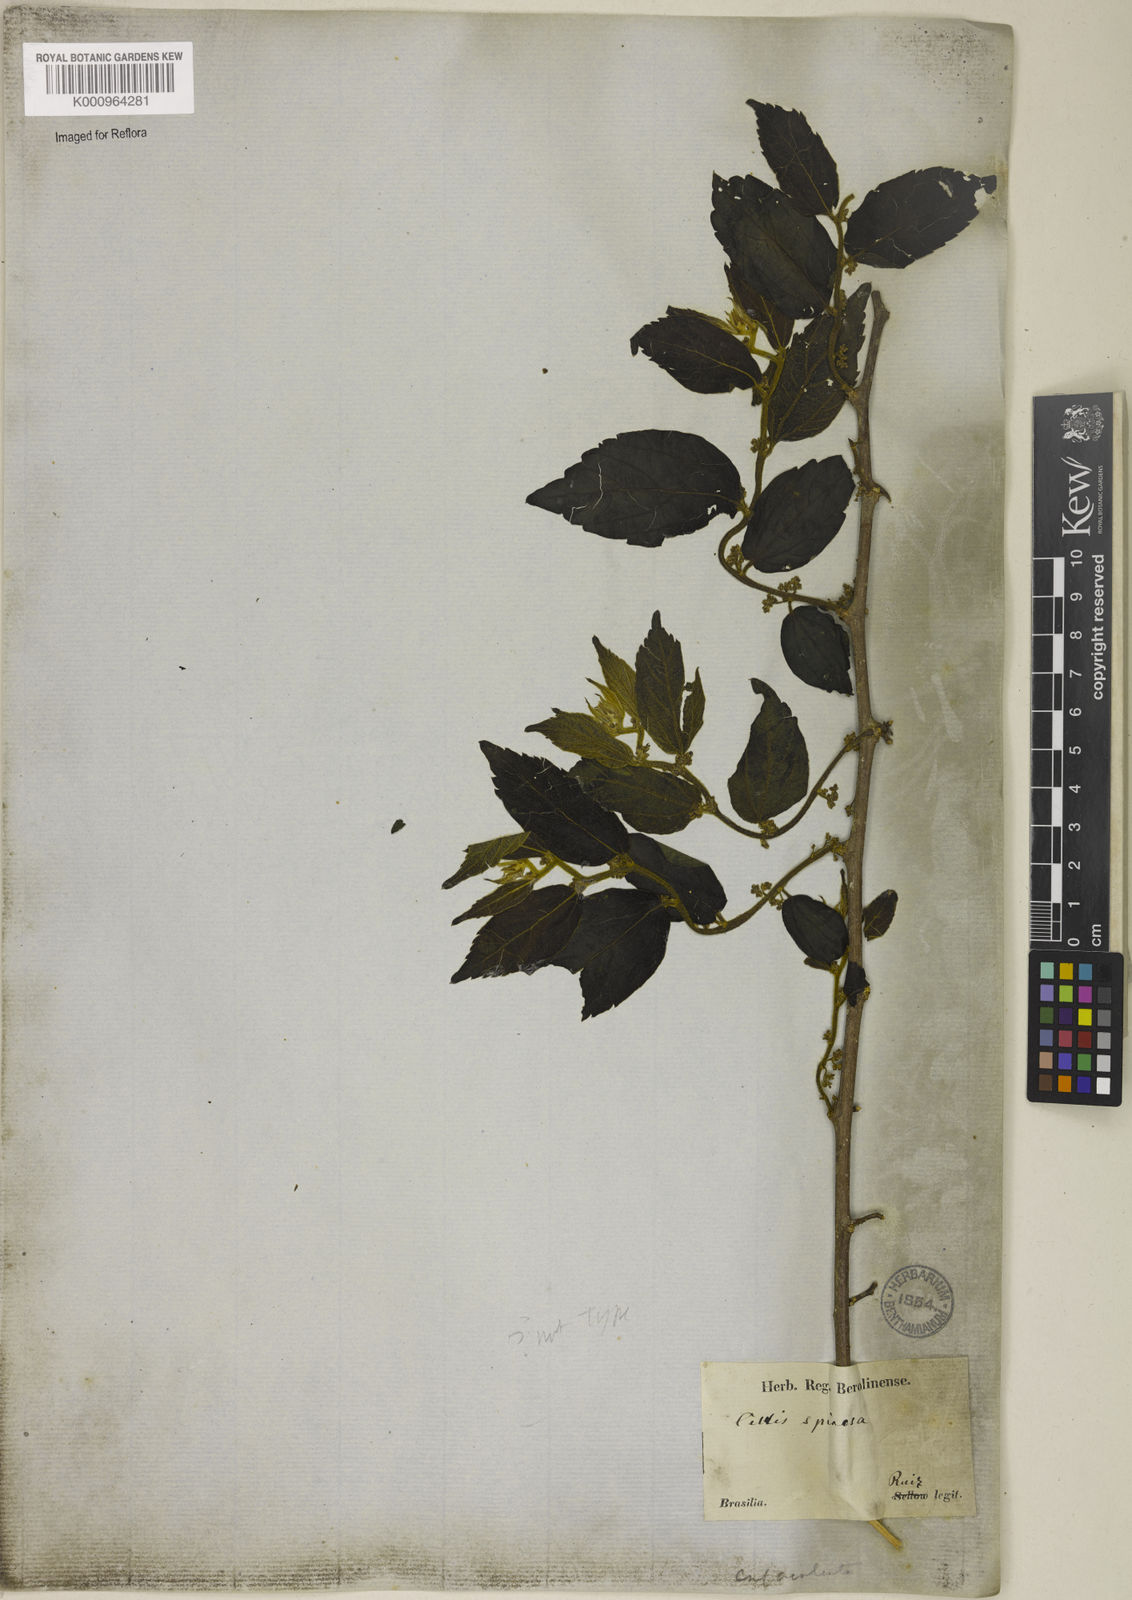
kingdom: Plantae
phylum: Tracheophyta
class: Magnoliopsida
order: Rosales
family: Cannabaceae
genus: Celtis
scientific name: Celtis spinosa
